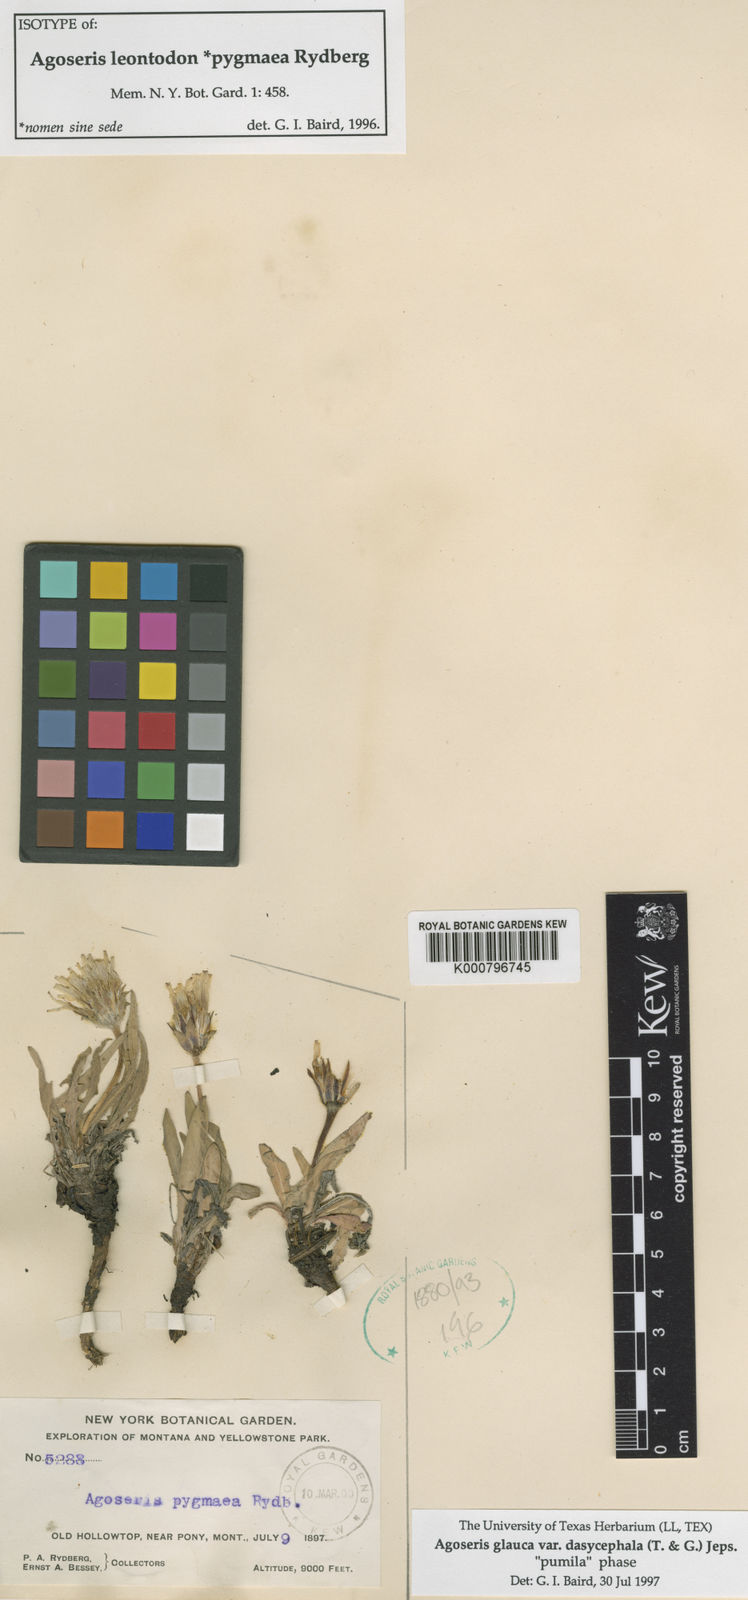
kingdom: Plantae
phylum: Tracheophyta
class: Magnoliopsida
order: Asterales
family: Asteraceae
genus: Agoseris
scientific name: Agoseris glauca
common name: Prairie agoseris
